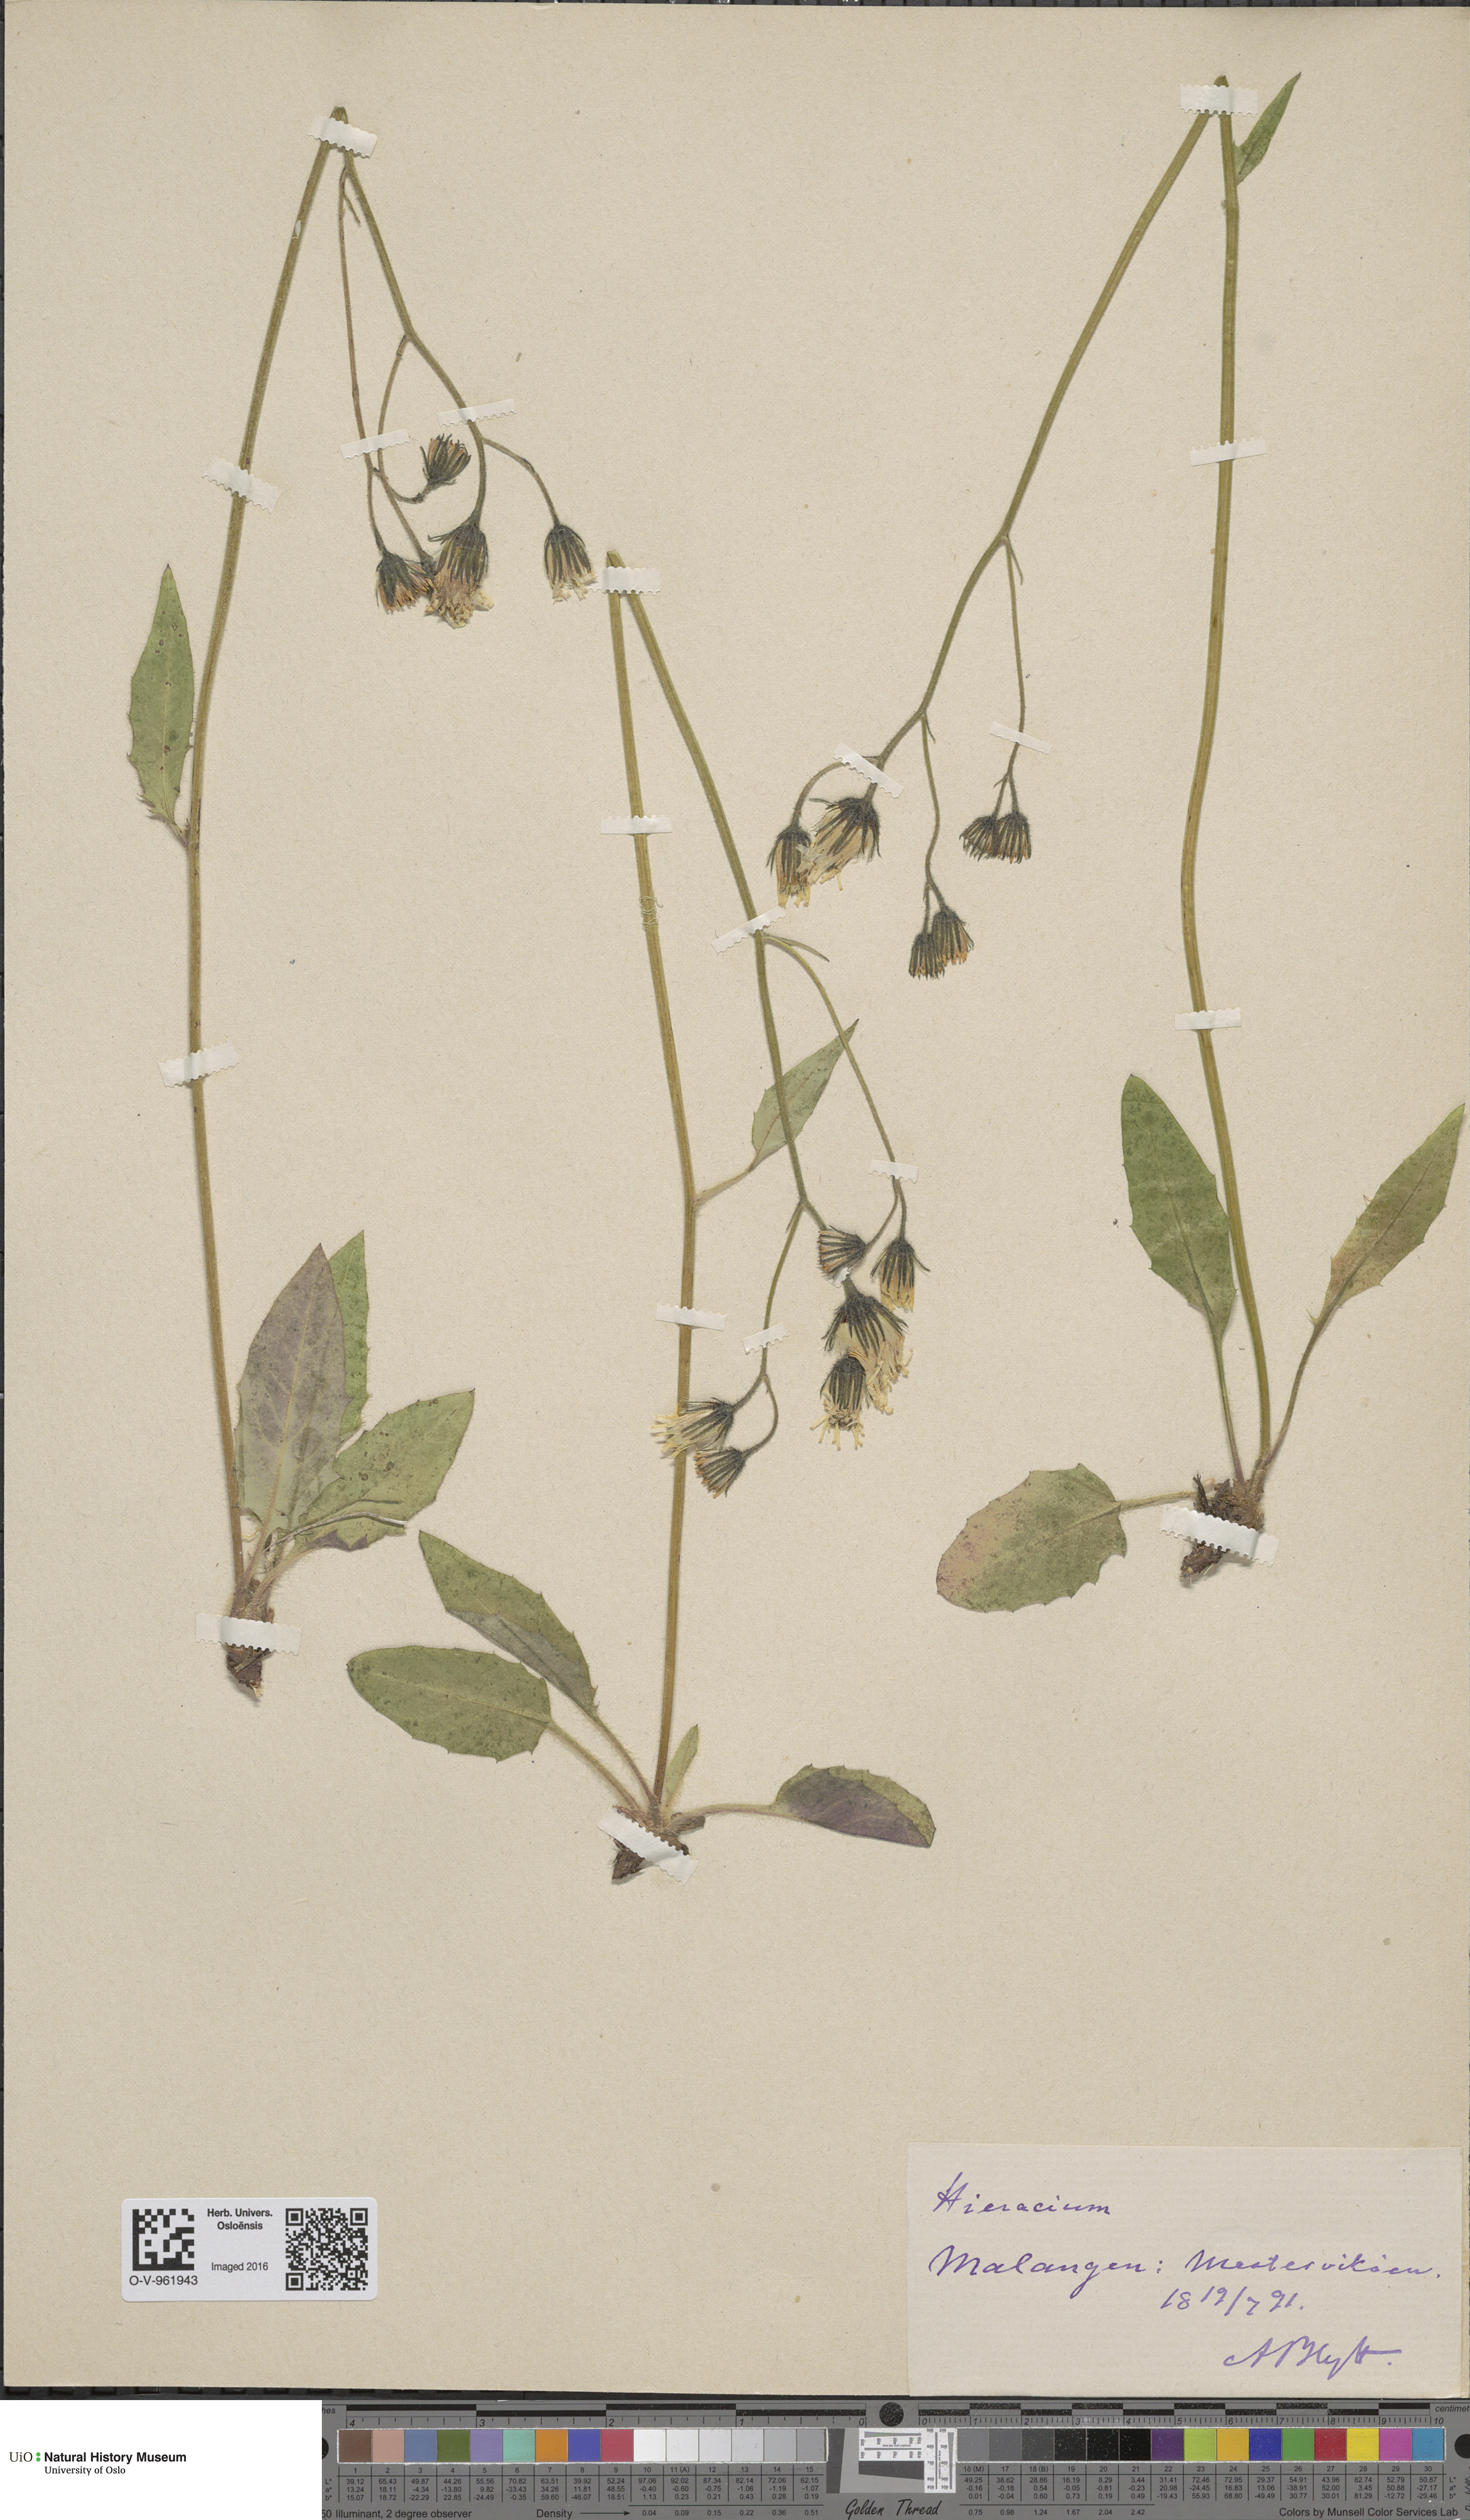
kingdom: Plantae
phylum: Tracheophyta
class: Magnoliopsida
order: Asterales
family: Asteraceae
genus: Hieracium
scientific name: Hieracium murorum
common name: Wall hawkweed
